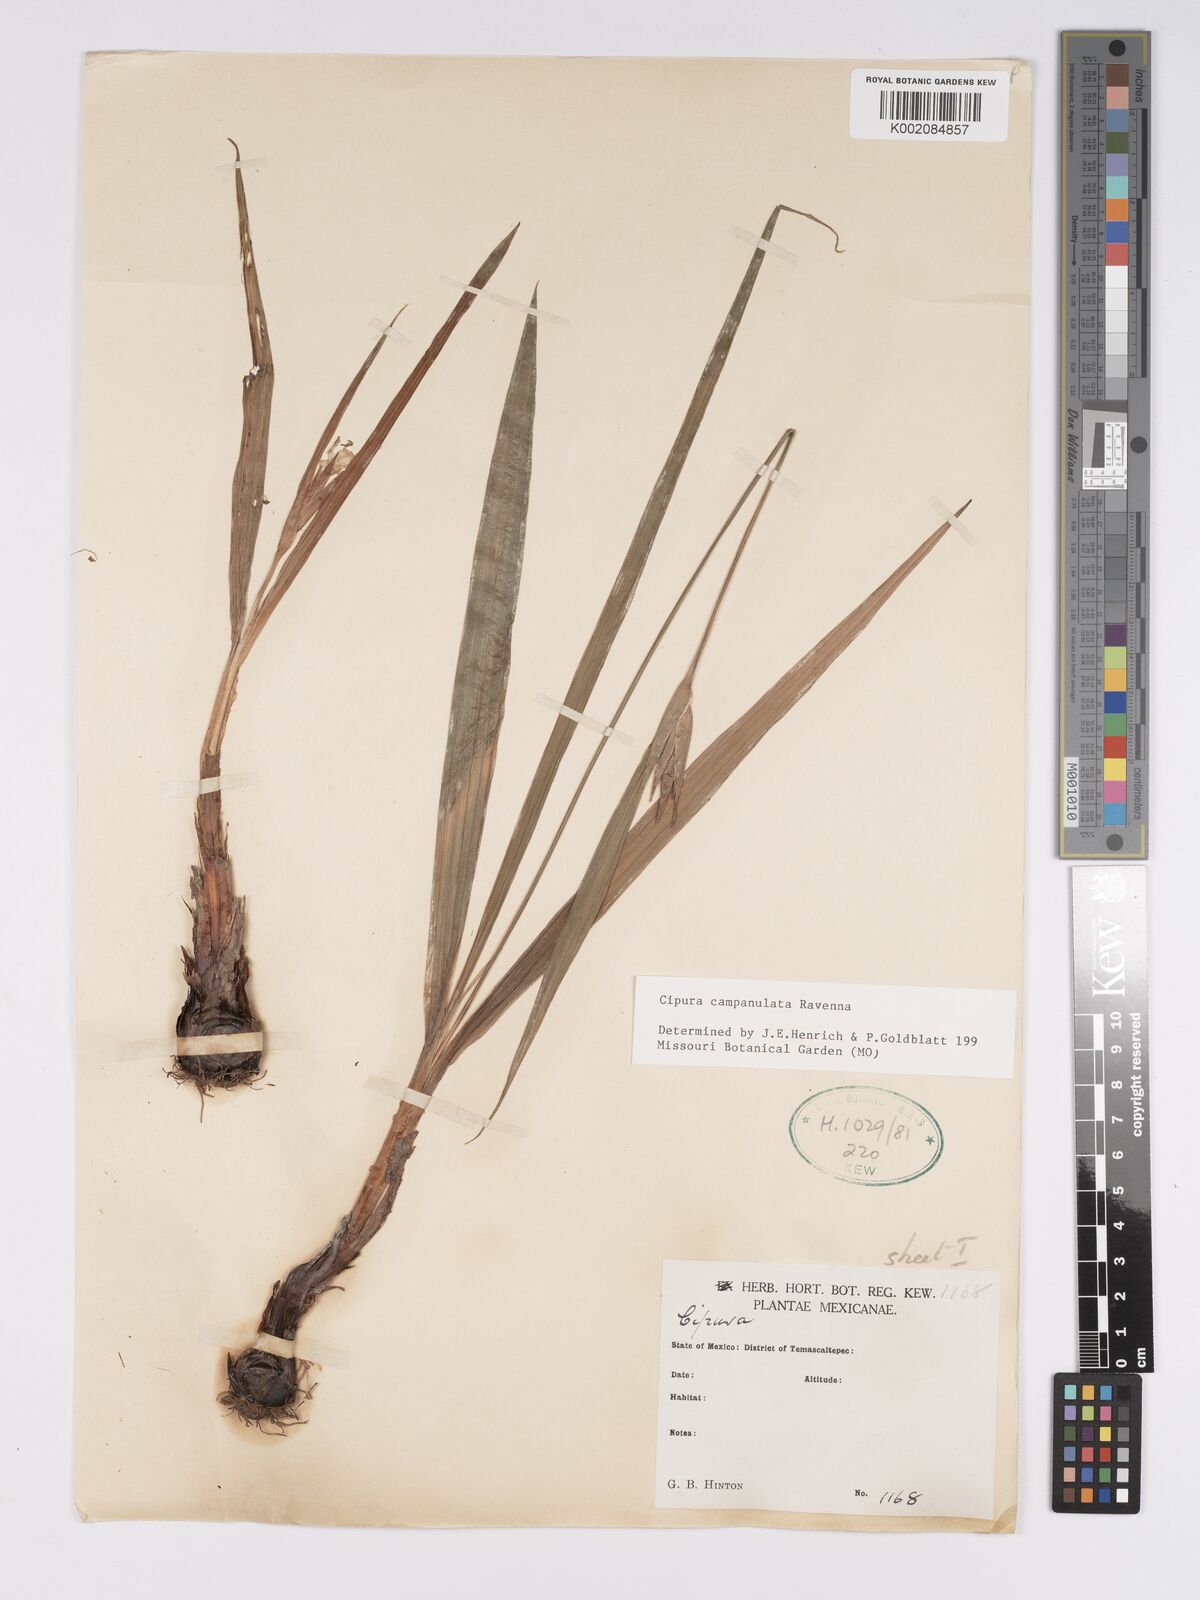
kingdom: Plantae
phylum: Tracheophyta
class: Liliopsida
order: Asparagales
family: Iridaceae
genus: Cipura
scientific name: Cipura campanulata
